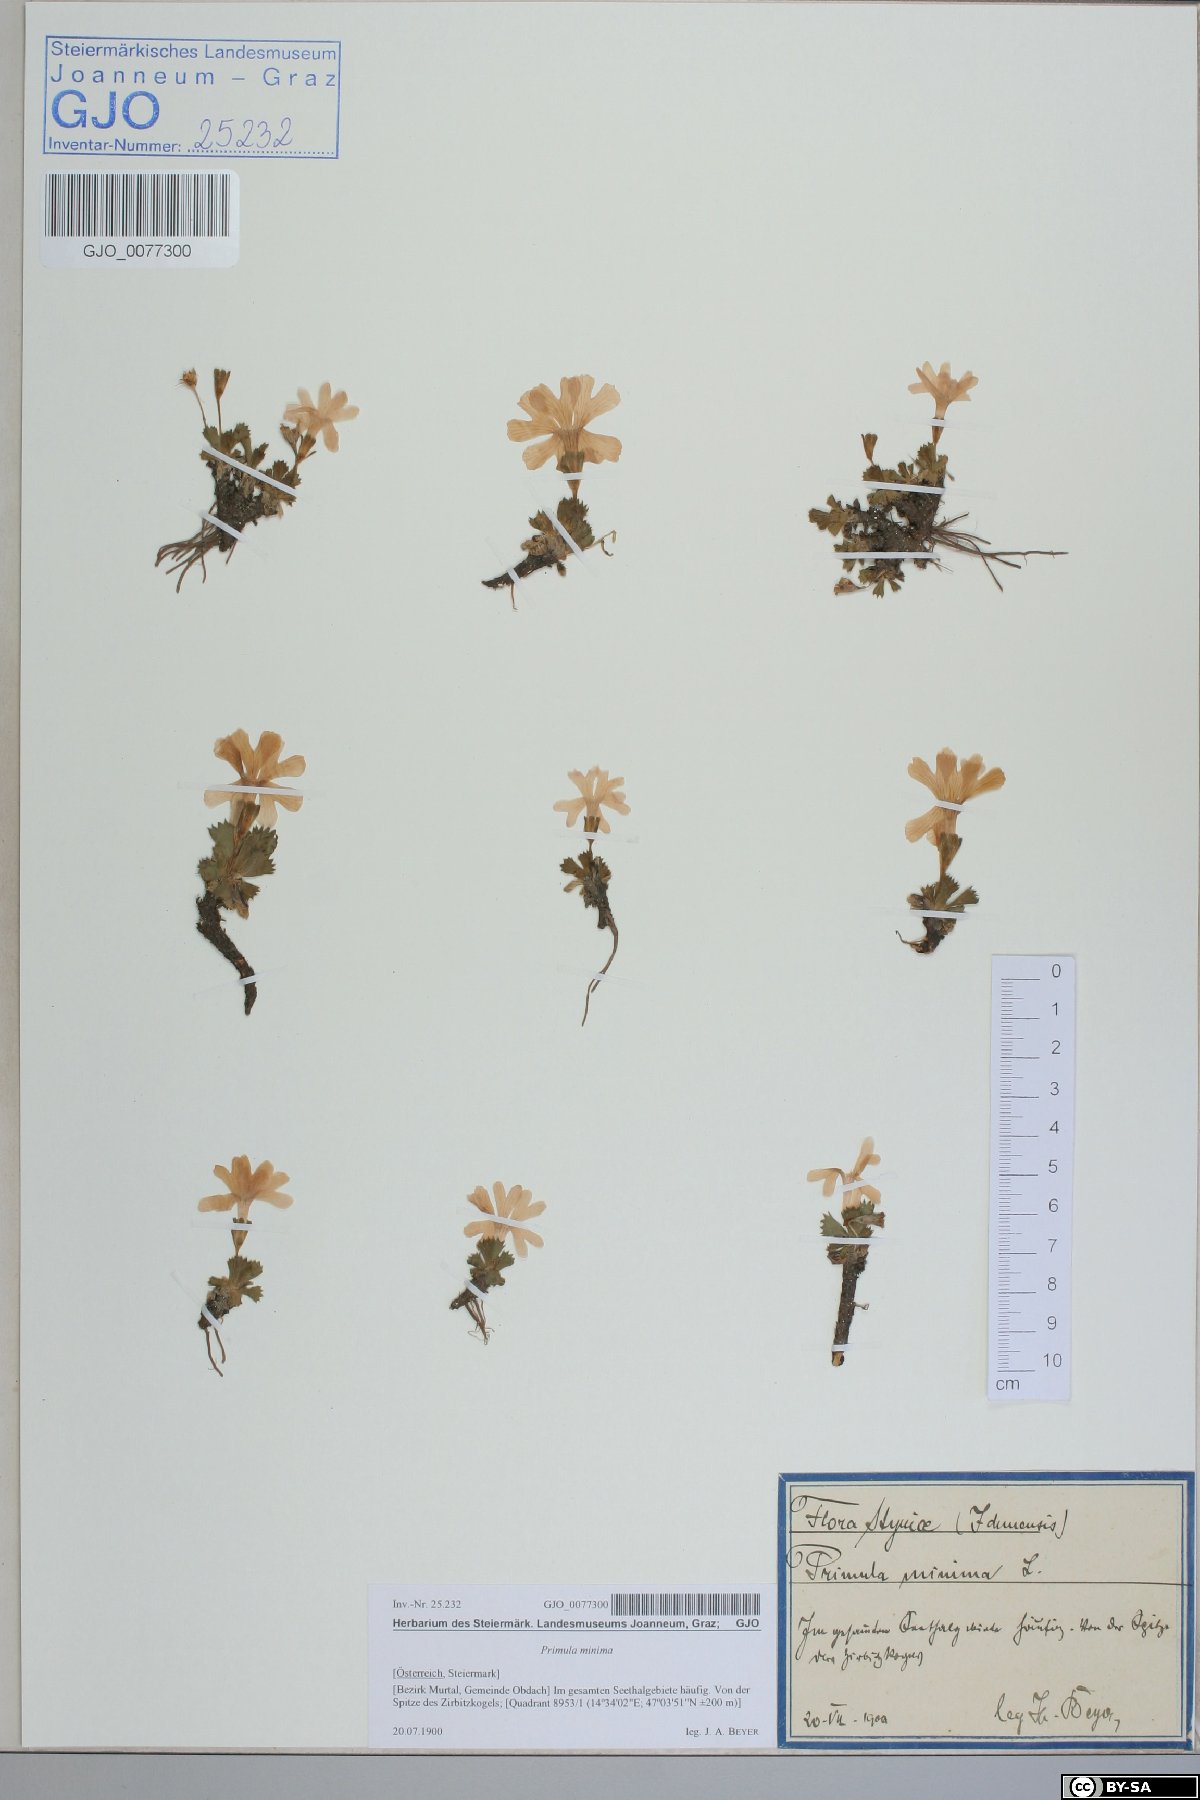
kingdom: Plantae
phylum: Tracheophyta
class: Magnoliopsida
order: Ericales
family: Primulaceae
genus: Primula
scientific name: Primula minima
